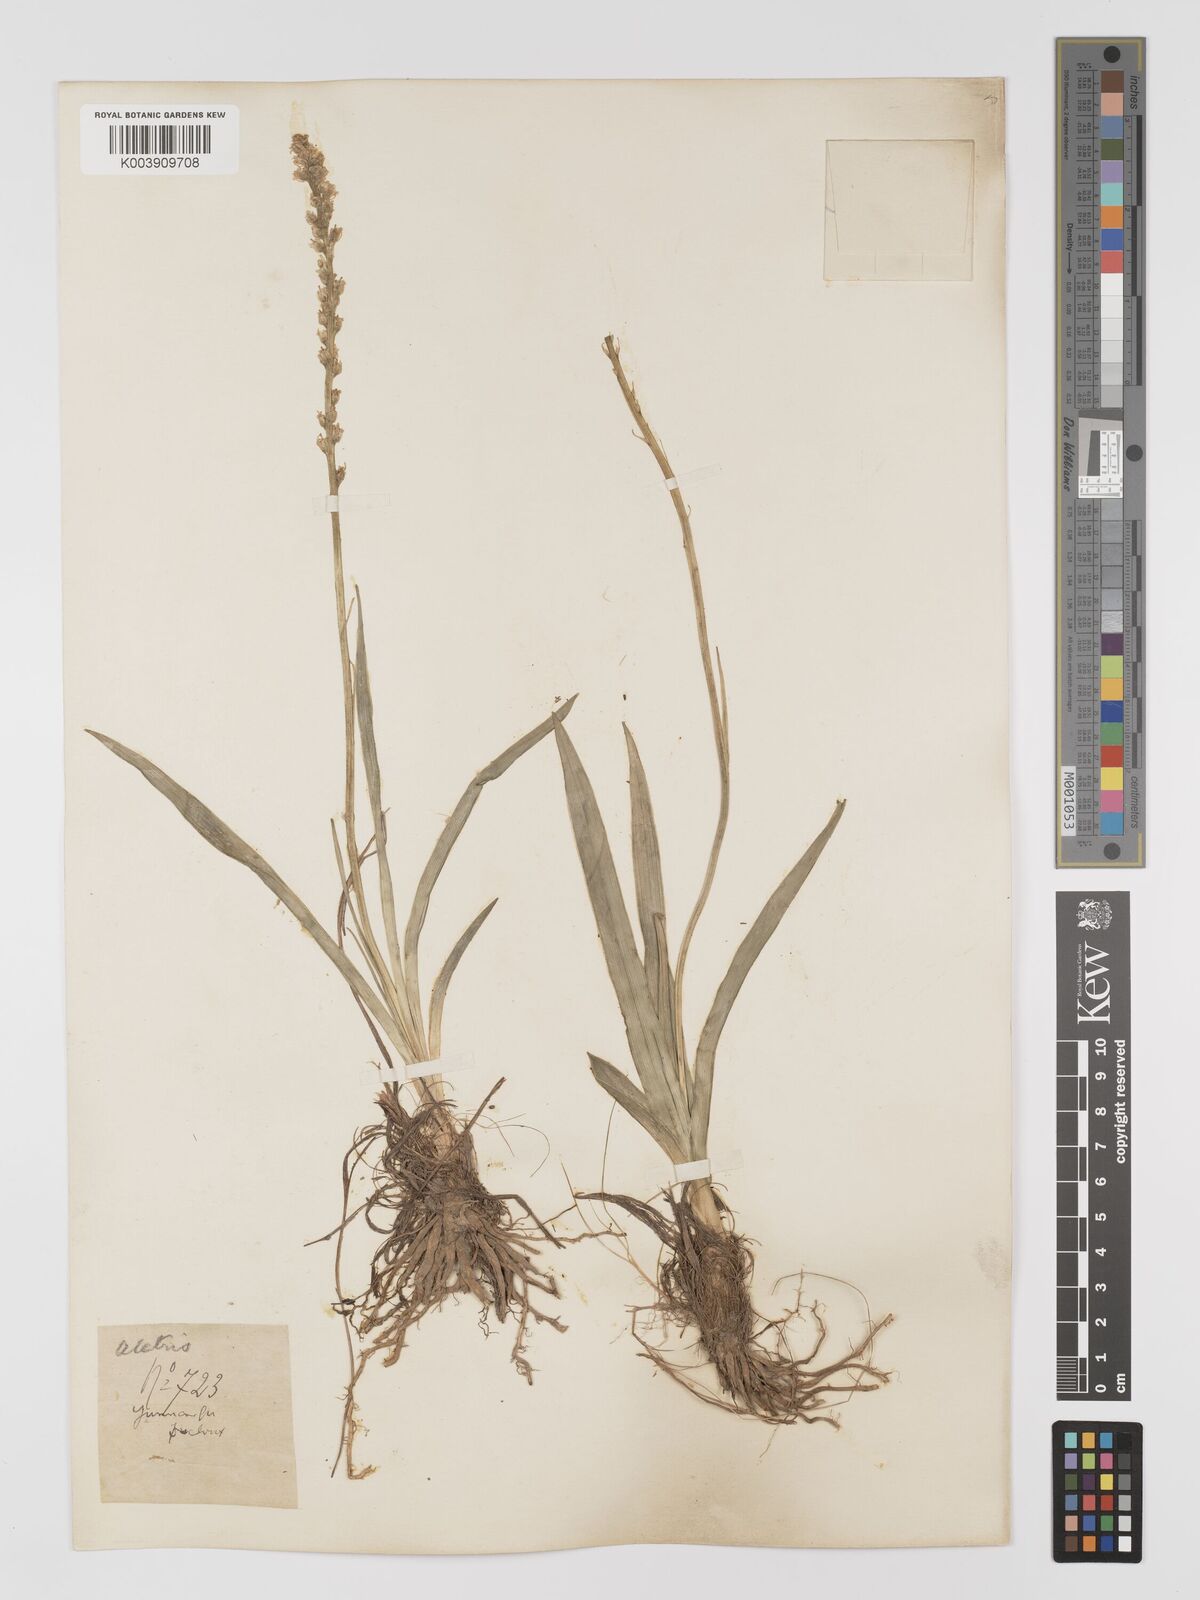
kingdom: Plantae
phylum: Tracheophyta
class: Liliopsida
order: Dioscoreales
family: Nartheciaceae
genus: Aletris
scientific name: Aletris pauciflora
